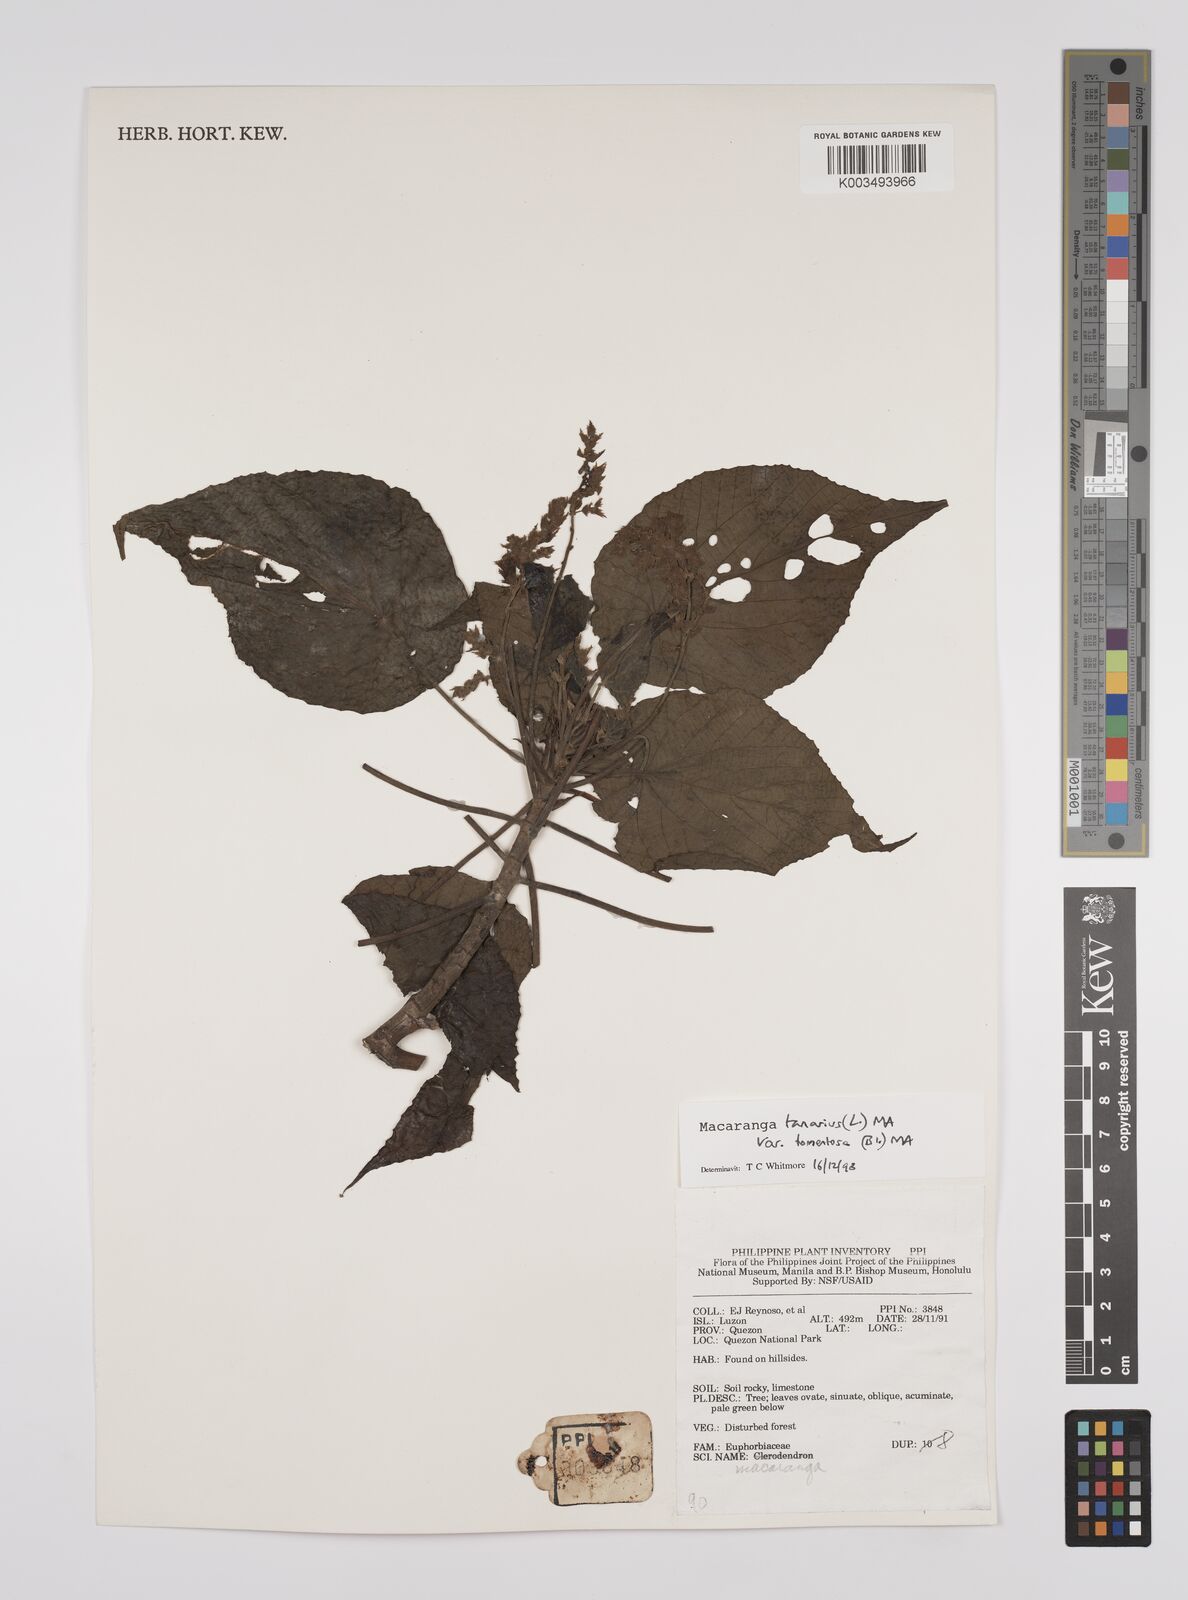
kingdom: Plantae
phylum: Tracheophyta
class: Magnoliopsida
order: Malpighiales
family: Euphorbiaceae
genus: Macaranga
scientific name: Macaranga tanarius
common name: Parasol leaf tree
